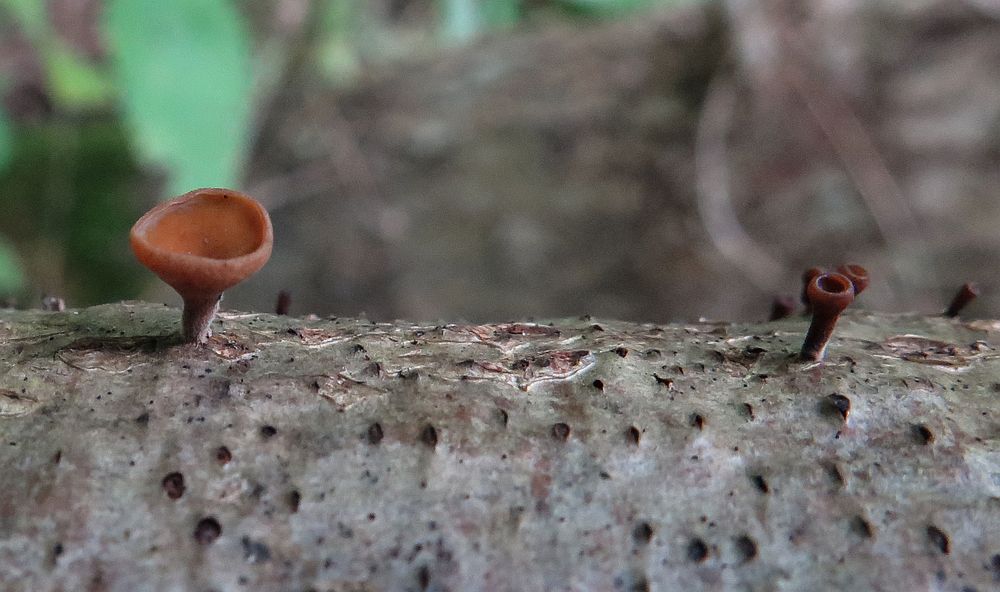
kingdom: Fungi
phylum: Ascomycota
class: Leotiomycetes
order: Helotiales
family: Rutstroemiaceae
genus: Rutstroemia
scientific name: Rutstroemia firma
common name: gren-brunskive
